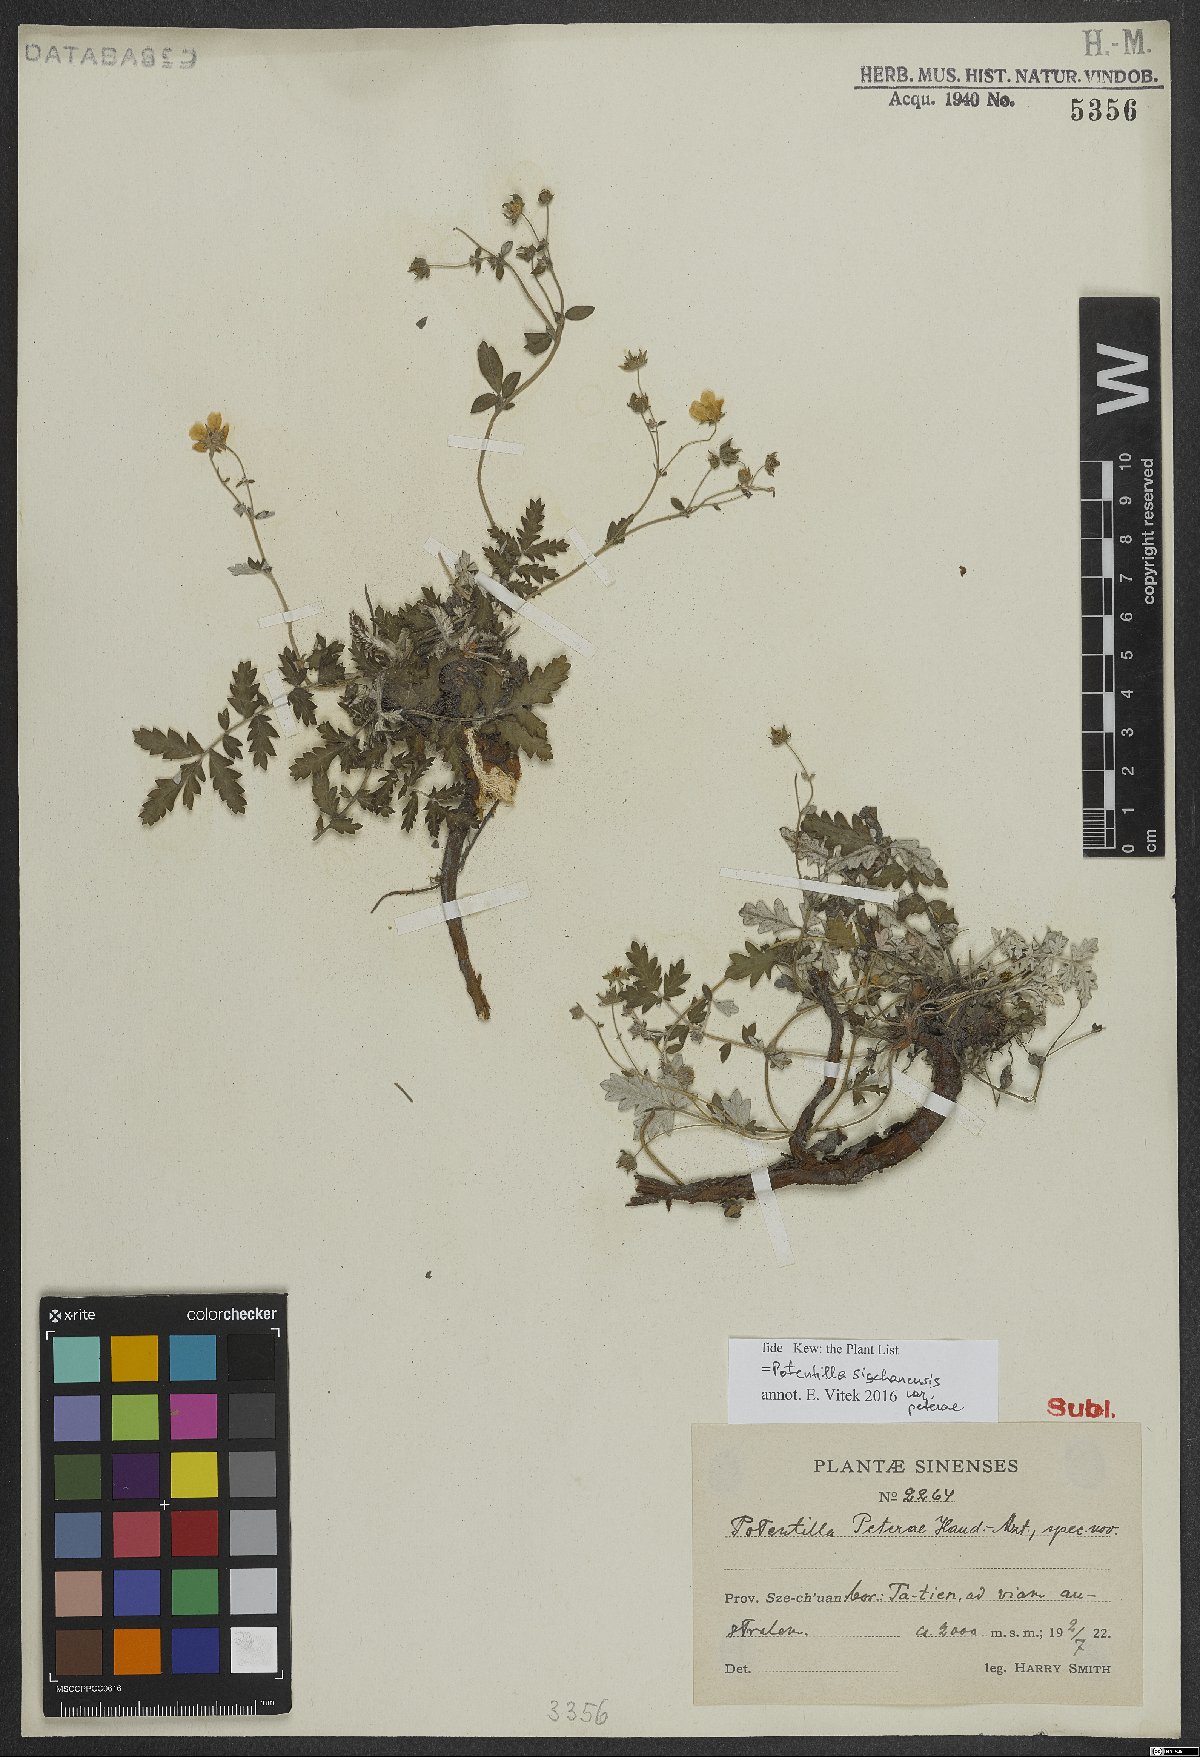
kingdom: Plantae
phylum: Tracheophyta
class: Magnoliopsida
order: Rosales
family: Rosaceae
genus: Potentilla
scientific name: Potentilla sischanensis
